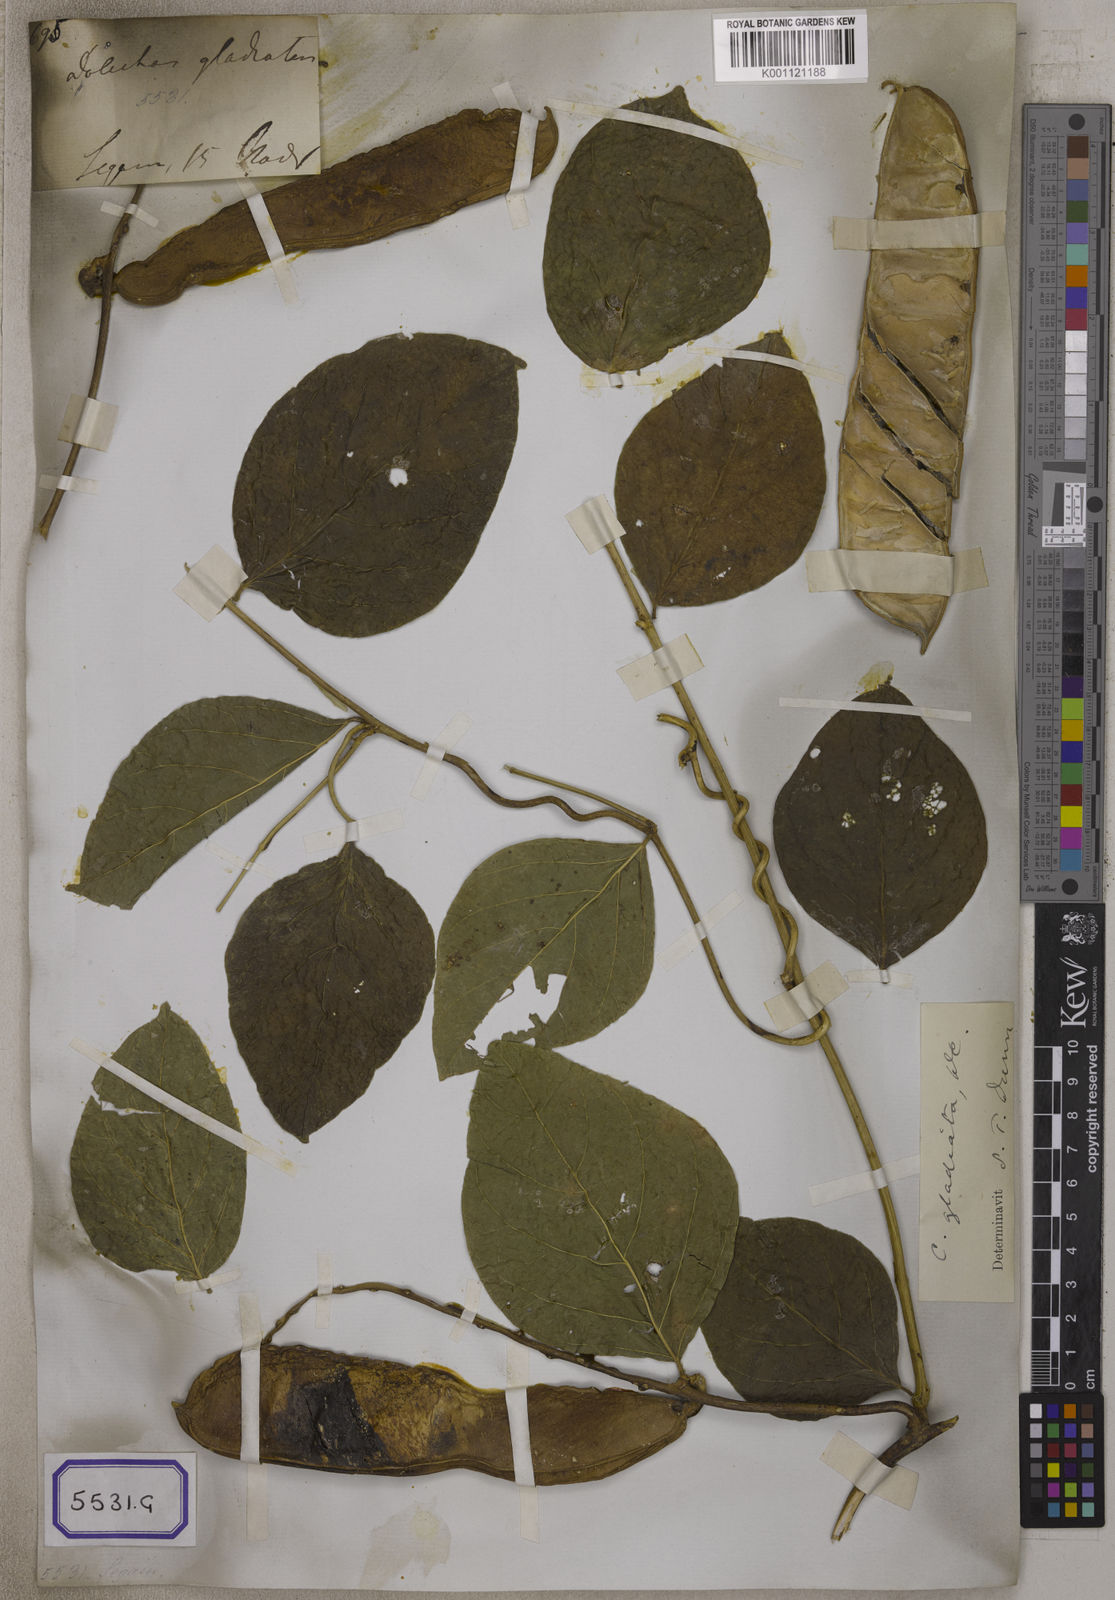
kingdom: Plantae
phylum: Tracheophyta
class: Magnoliopsida
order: Fabales
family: Fabaceae
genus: Canavalia
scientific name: Canavalia gladiata
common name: Scimitar-bean
